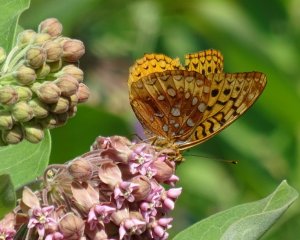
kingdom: Animalia
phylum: Arthropoda
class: Insecta
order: Lepidoptera
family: Nymphalidae
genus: Speyeria
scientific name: Speyeria cybele
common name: Great Spangled Fritillary
